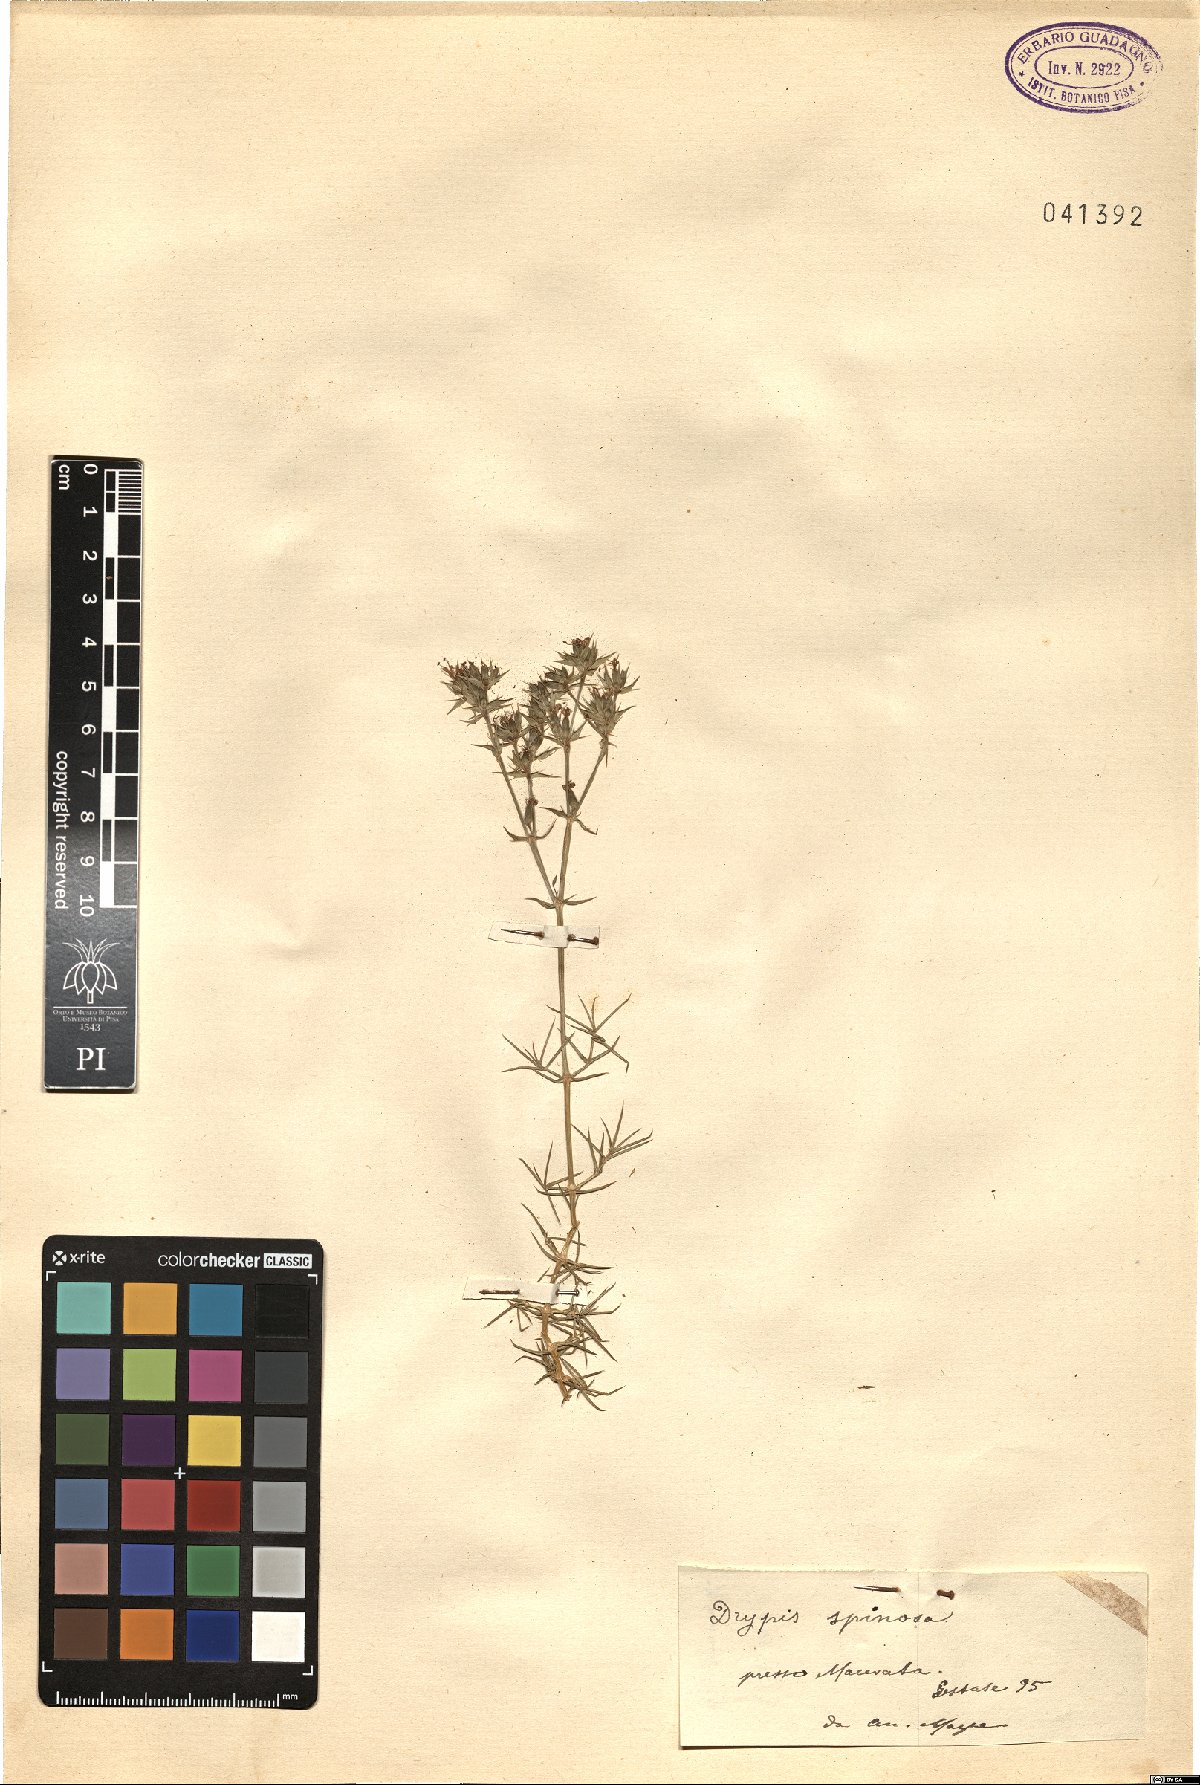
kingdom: Plantae
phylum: Tracheophyta
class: Magnoliopsida
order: Caryophyllales
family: Caryophyllaceae
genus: Drypis
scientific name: Drypis spinosa
